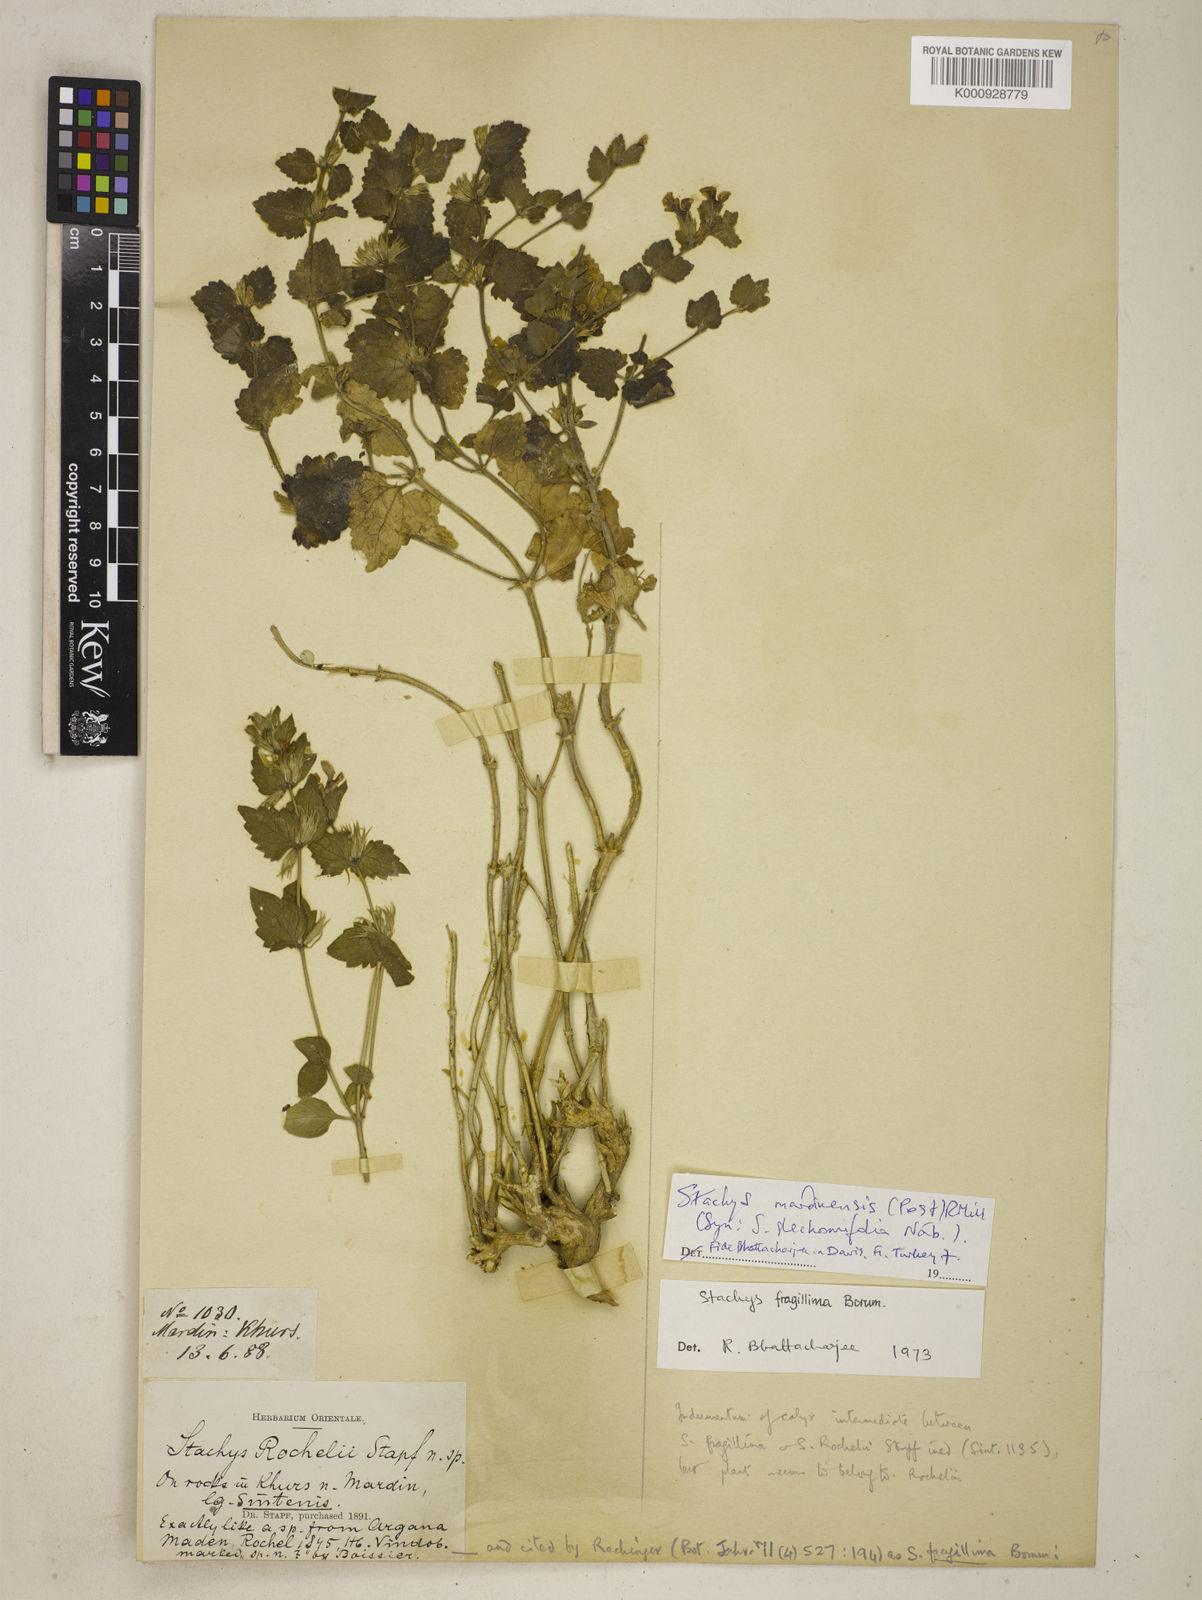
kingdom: Plantae
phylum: Tracheophyta
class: Magnoliopsida
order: Lamiales
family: Lamiaceae
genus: Stachys
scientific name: Stachys mardinensis
